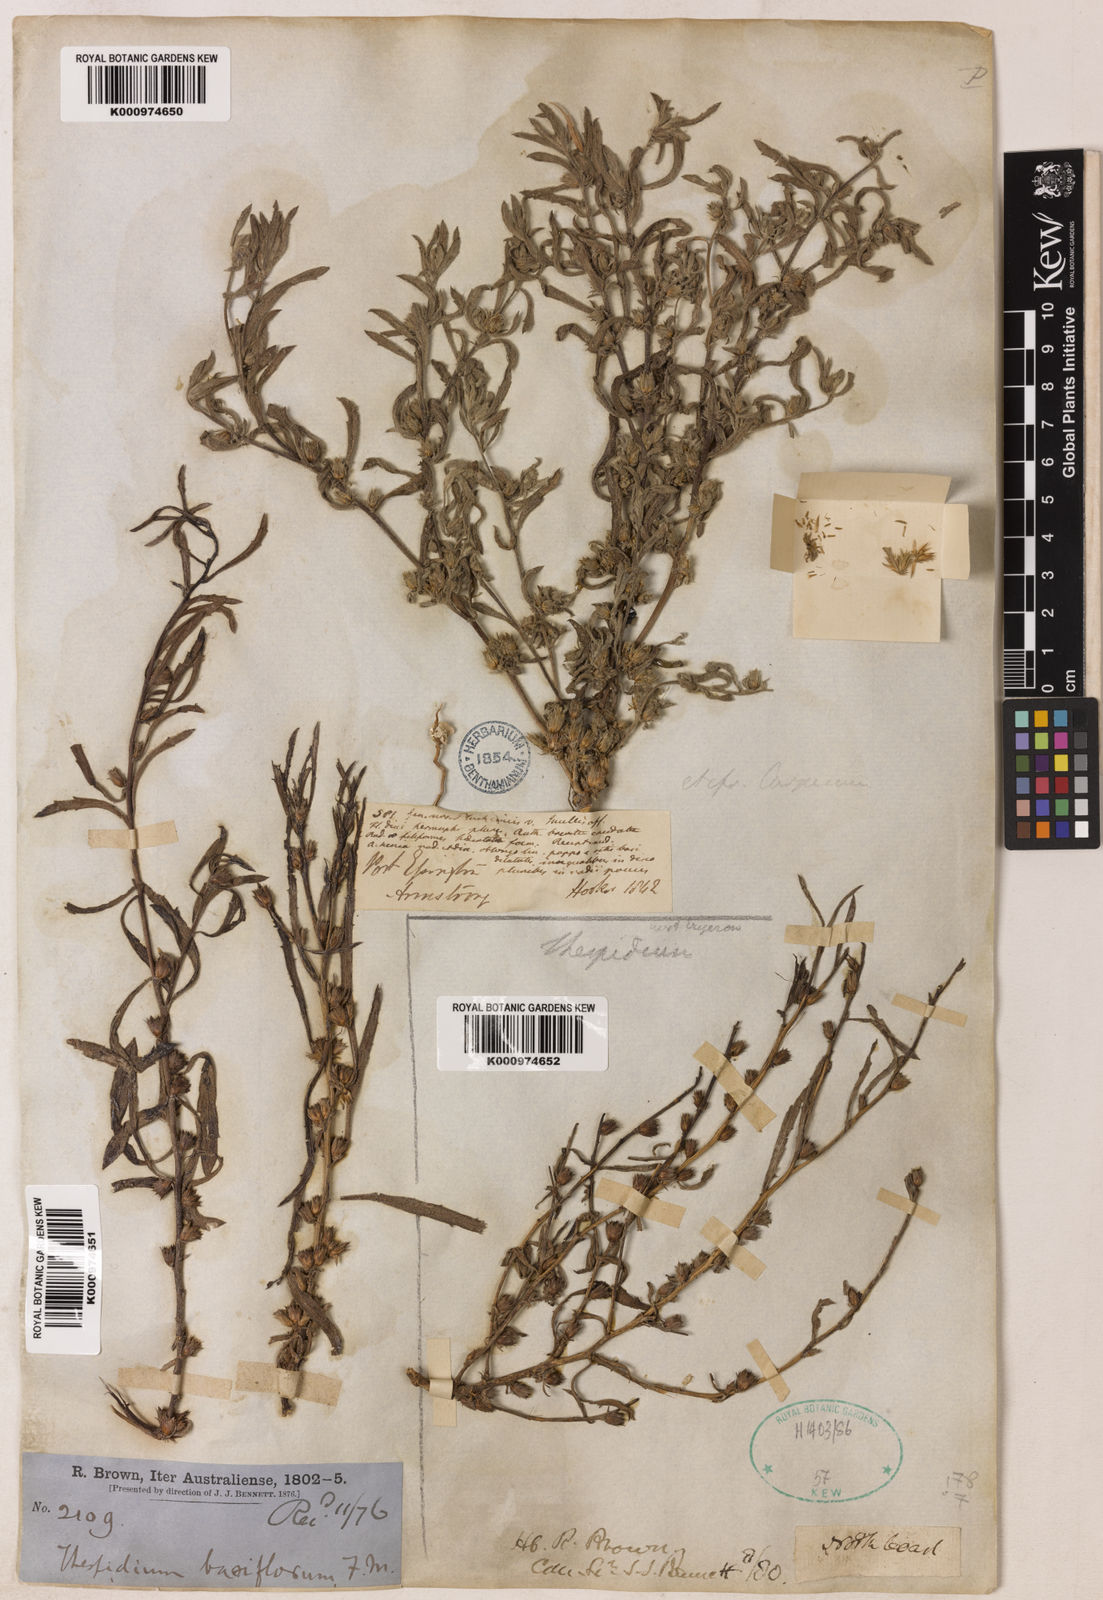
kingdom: Plantae
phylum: Tracheophyta
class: Magnoliopsida
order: Asterales
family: Asteraceae
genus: Thespidium
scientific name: Thespidium basiflorum
